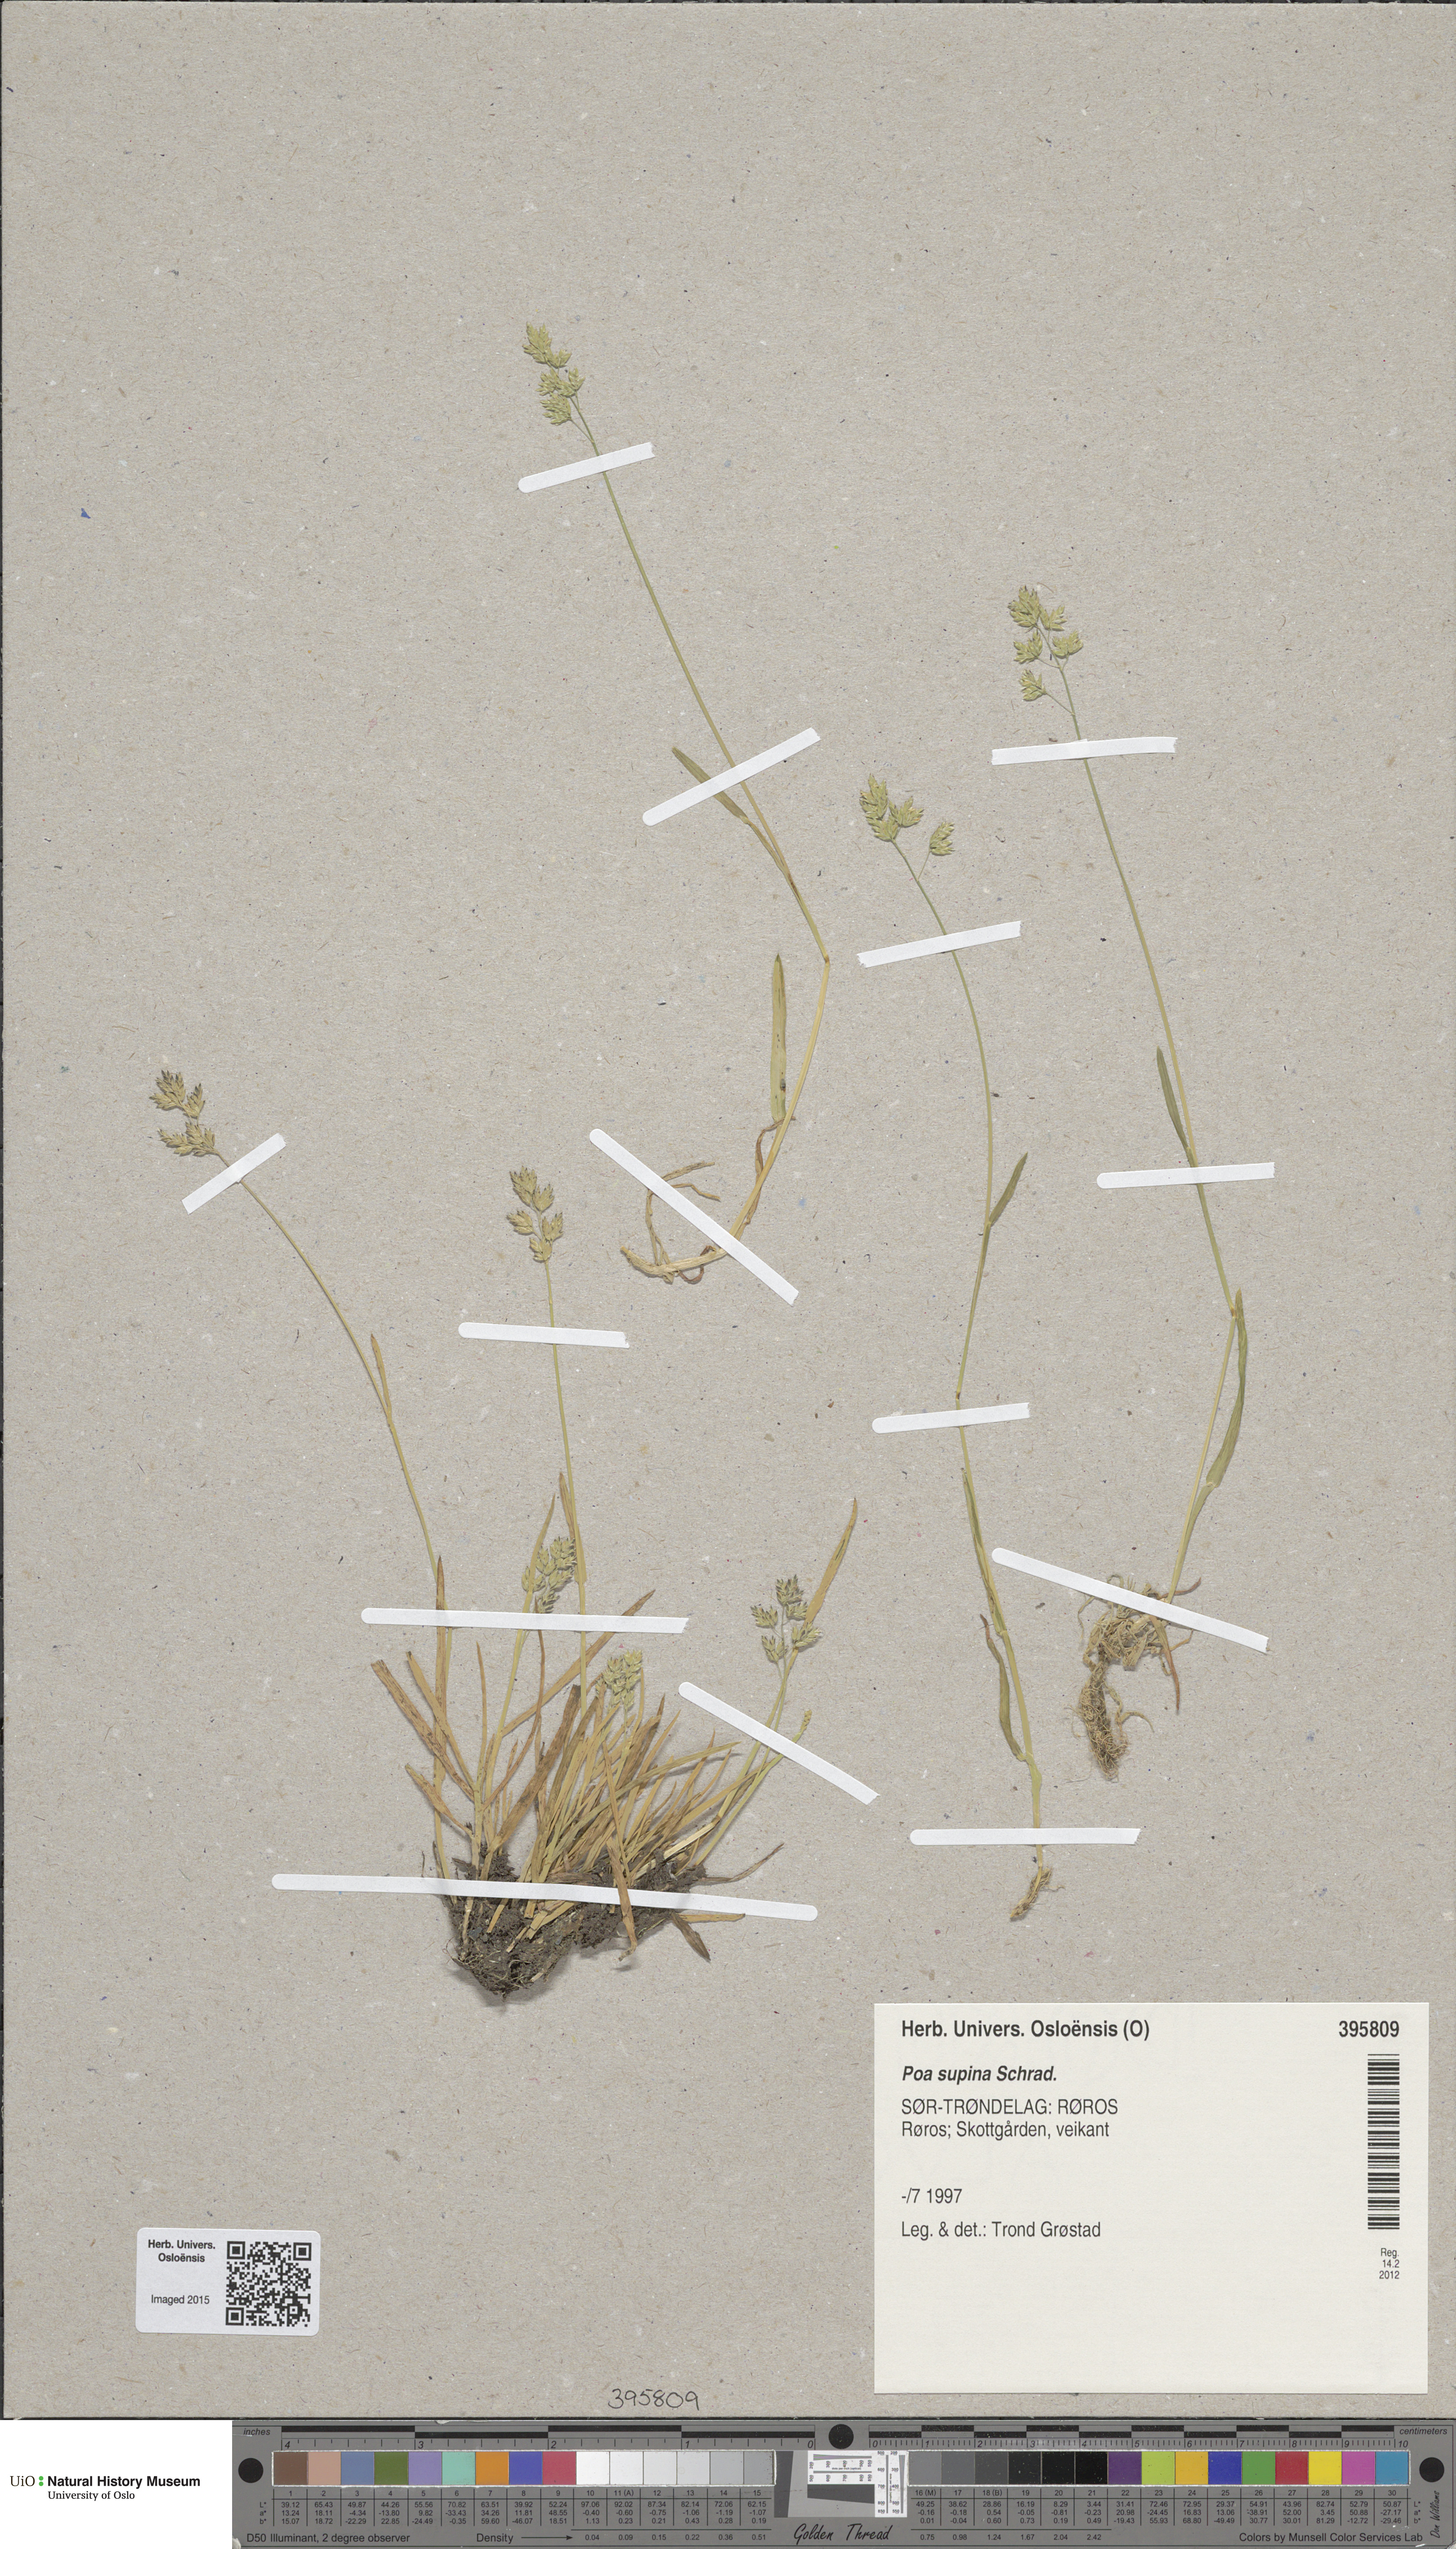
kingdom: Plantae
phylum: Tracheophyta
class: Liliopsida
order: Poales
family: Poaceae
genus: Poa
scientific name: Poa supina
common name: Supina bluegrass
